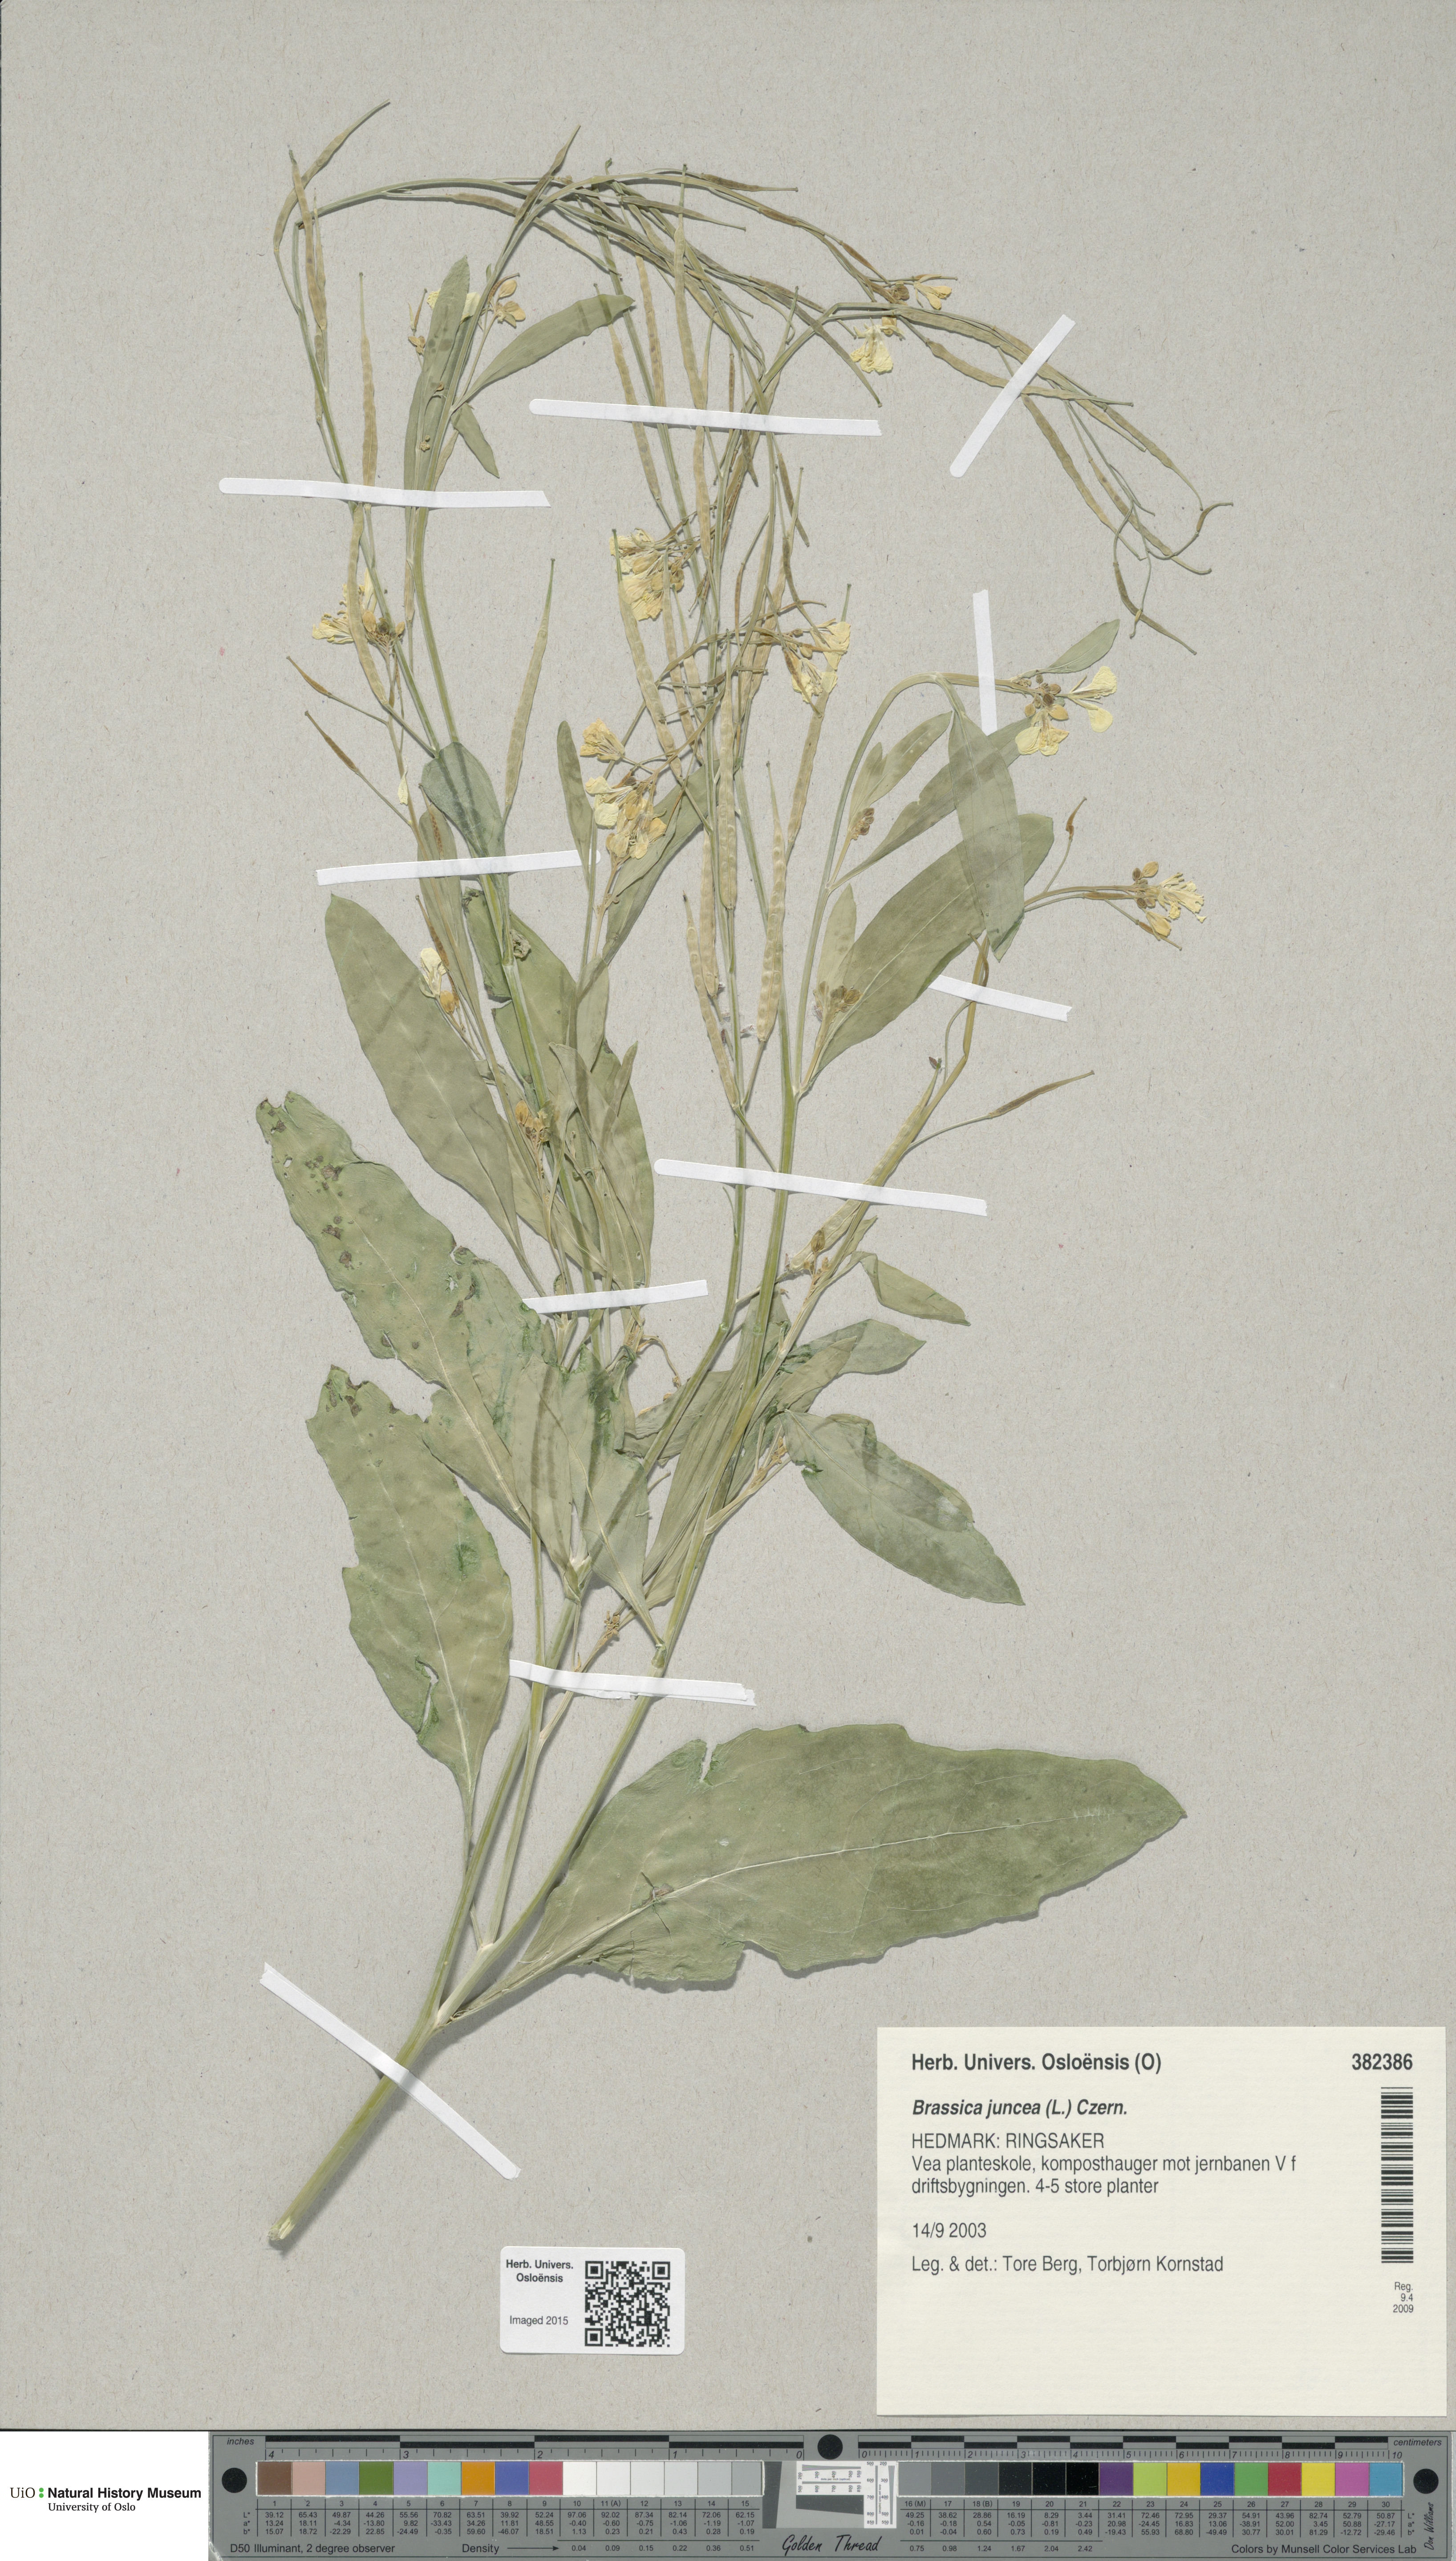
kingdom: Plantae
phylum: Tracheophyta
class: Magnoliopsida
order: Brassicales
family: Brassicaceae
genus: Brassica
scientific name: Brassica juncea
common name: Brown mustard
